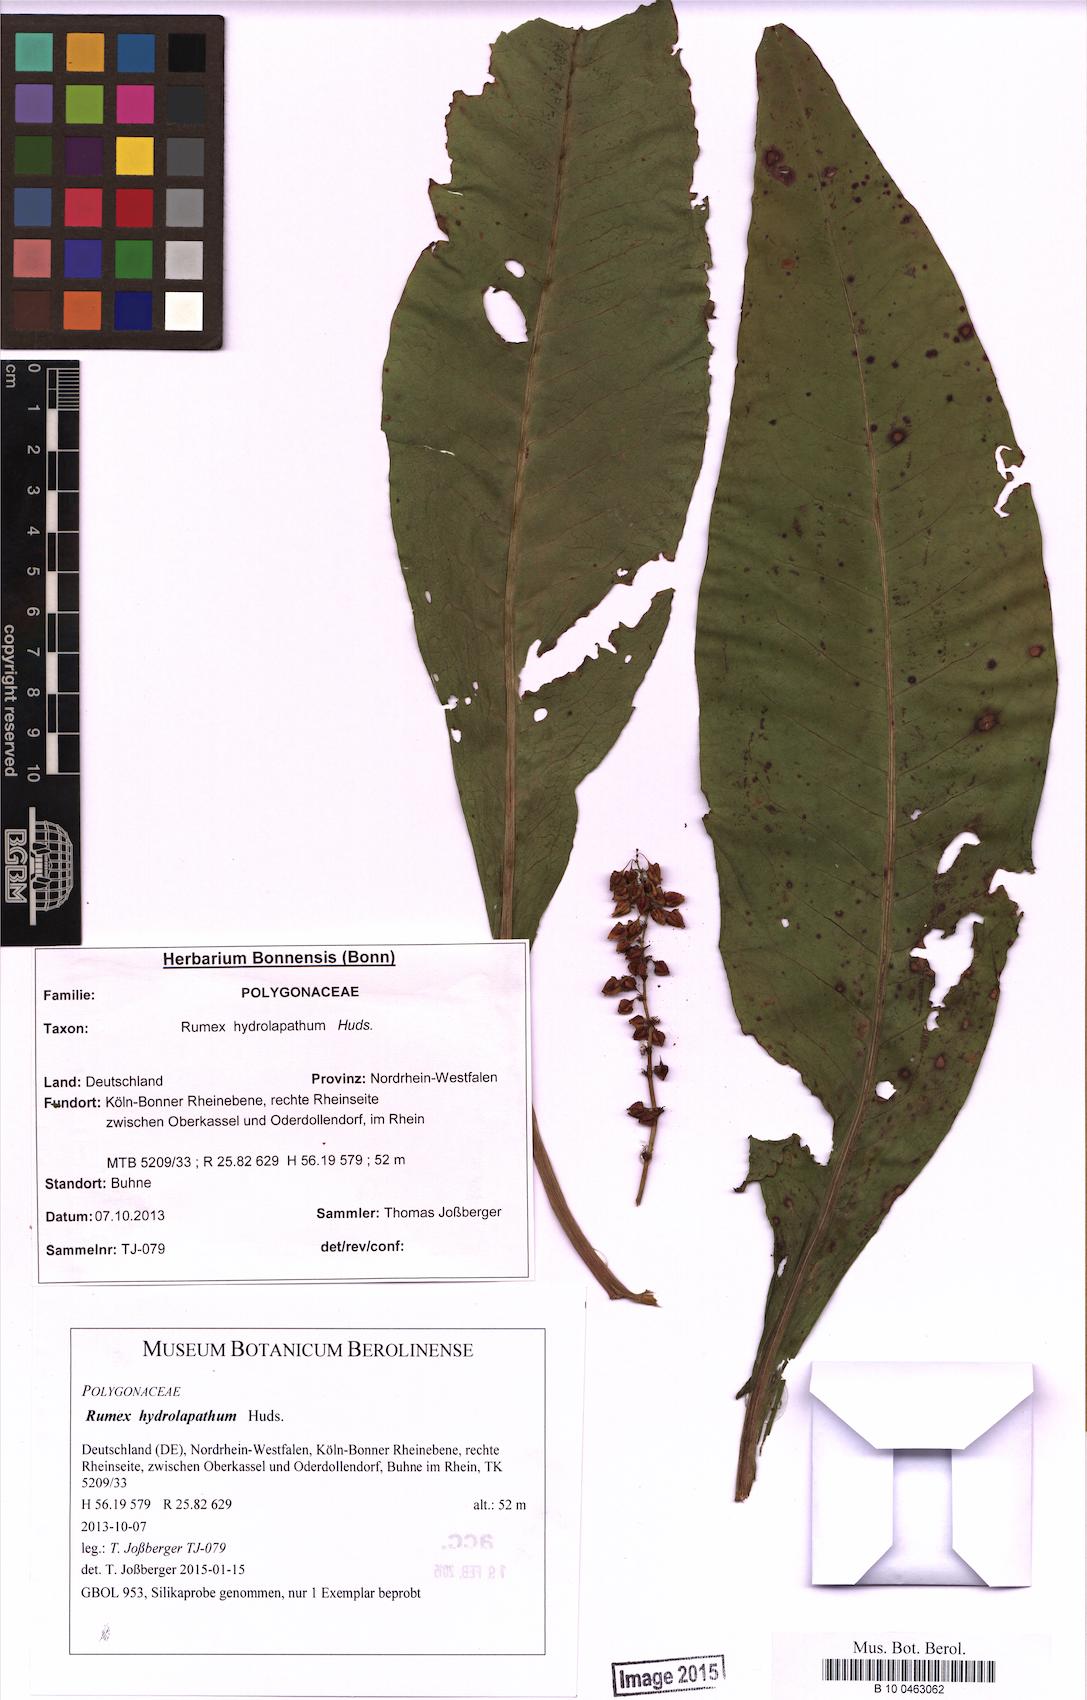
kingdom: Plantae
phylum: Tracheophyta
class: Magnoliopsida
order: Caryophyllales
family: Polygonaceae
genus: Rumex
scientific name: Rumex hydrolapathum
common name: Water dock
